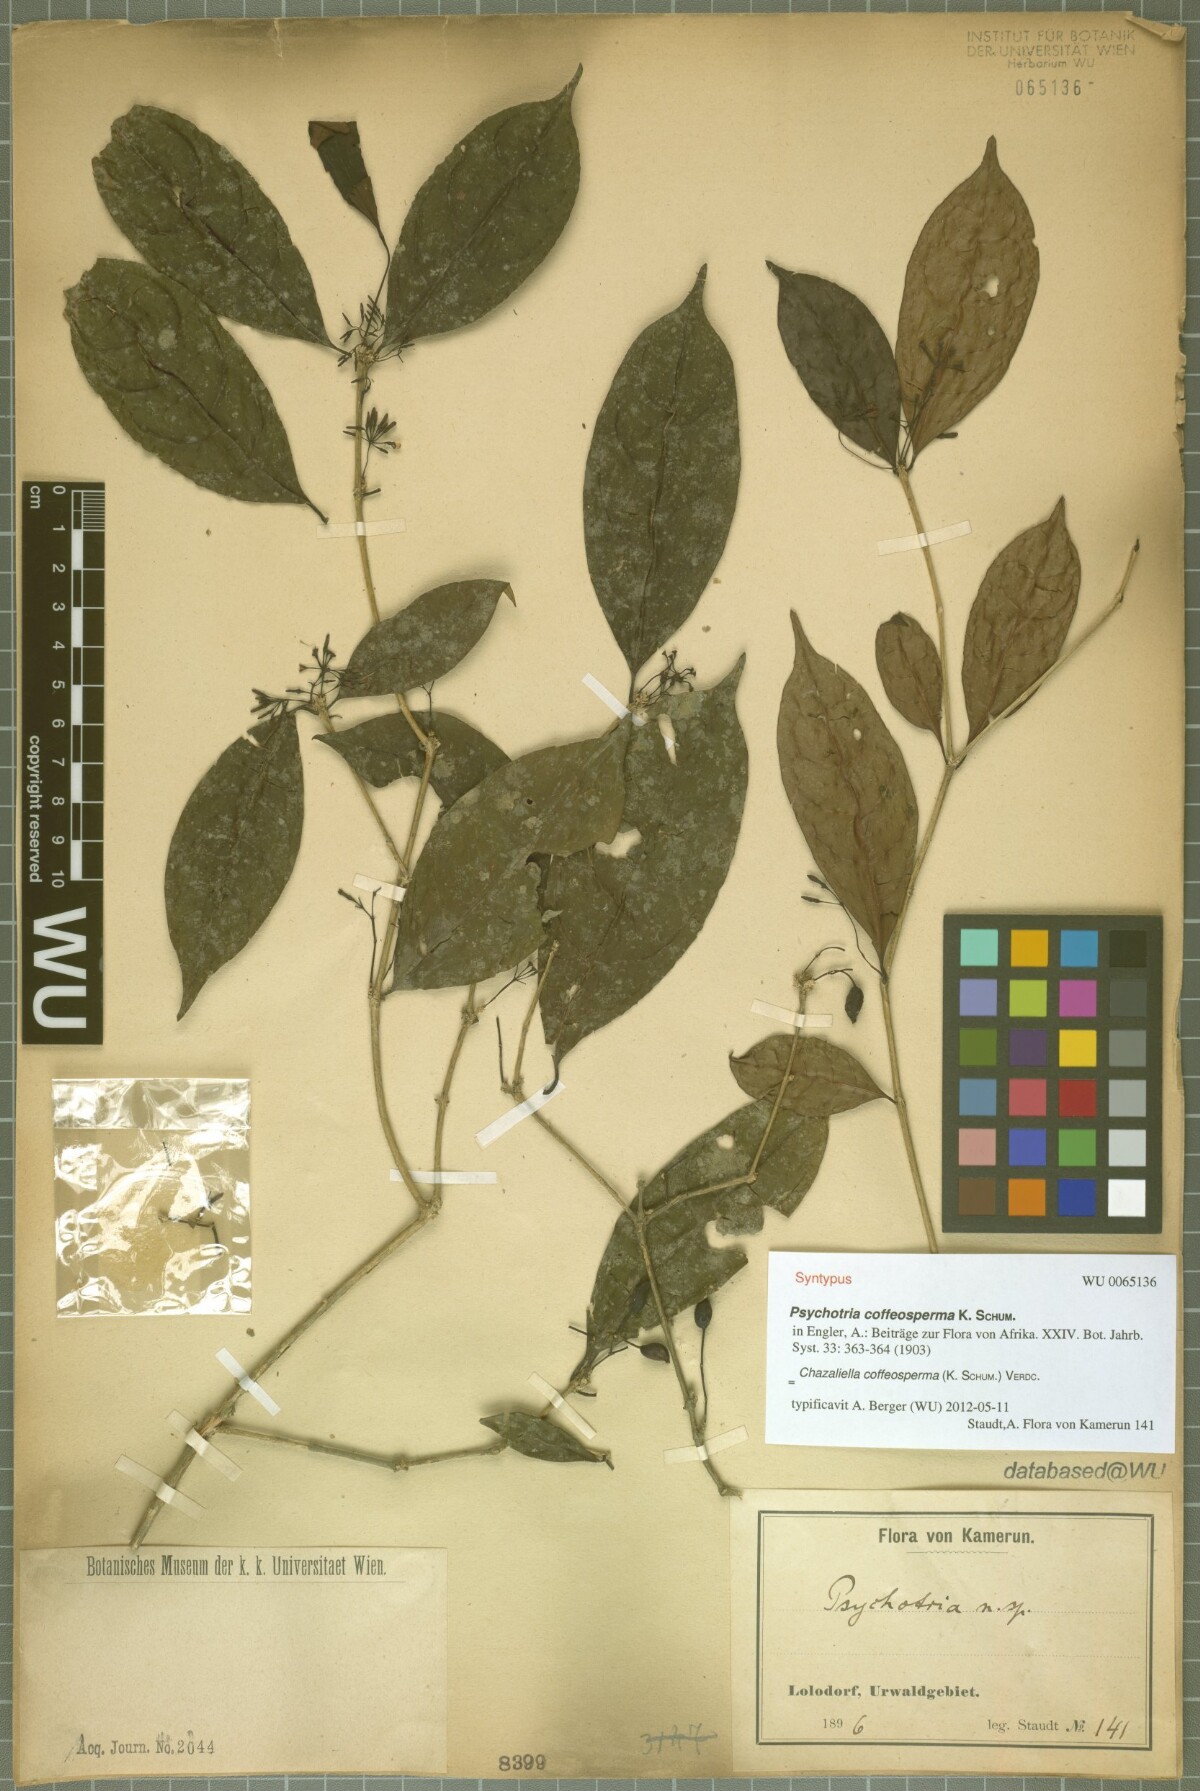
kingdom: Plantae
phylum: Tracheophyta
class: Magnoliopsida
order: Gentianales
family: Rubiaceae
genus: Eumachia
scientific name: Eumachia coffeosperma
